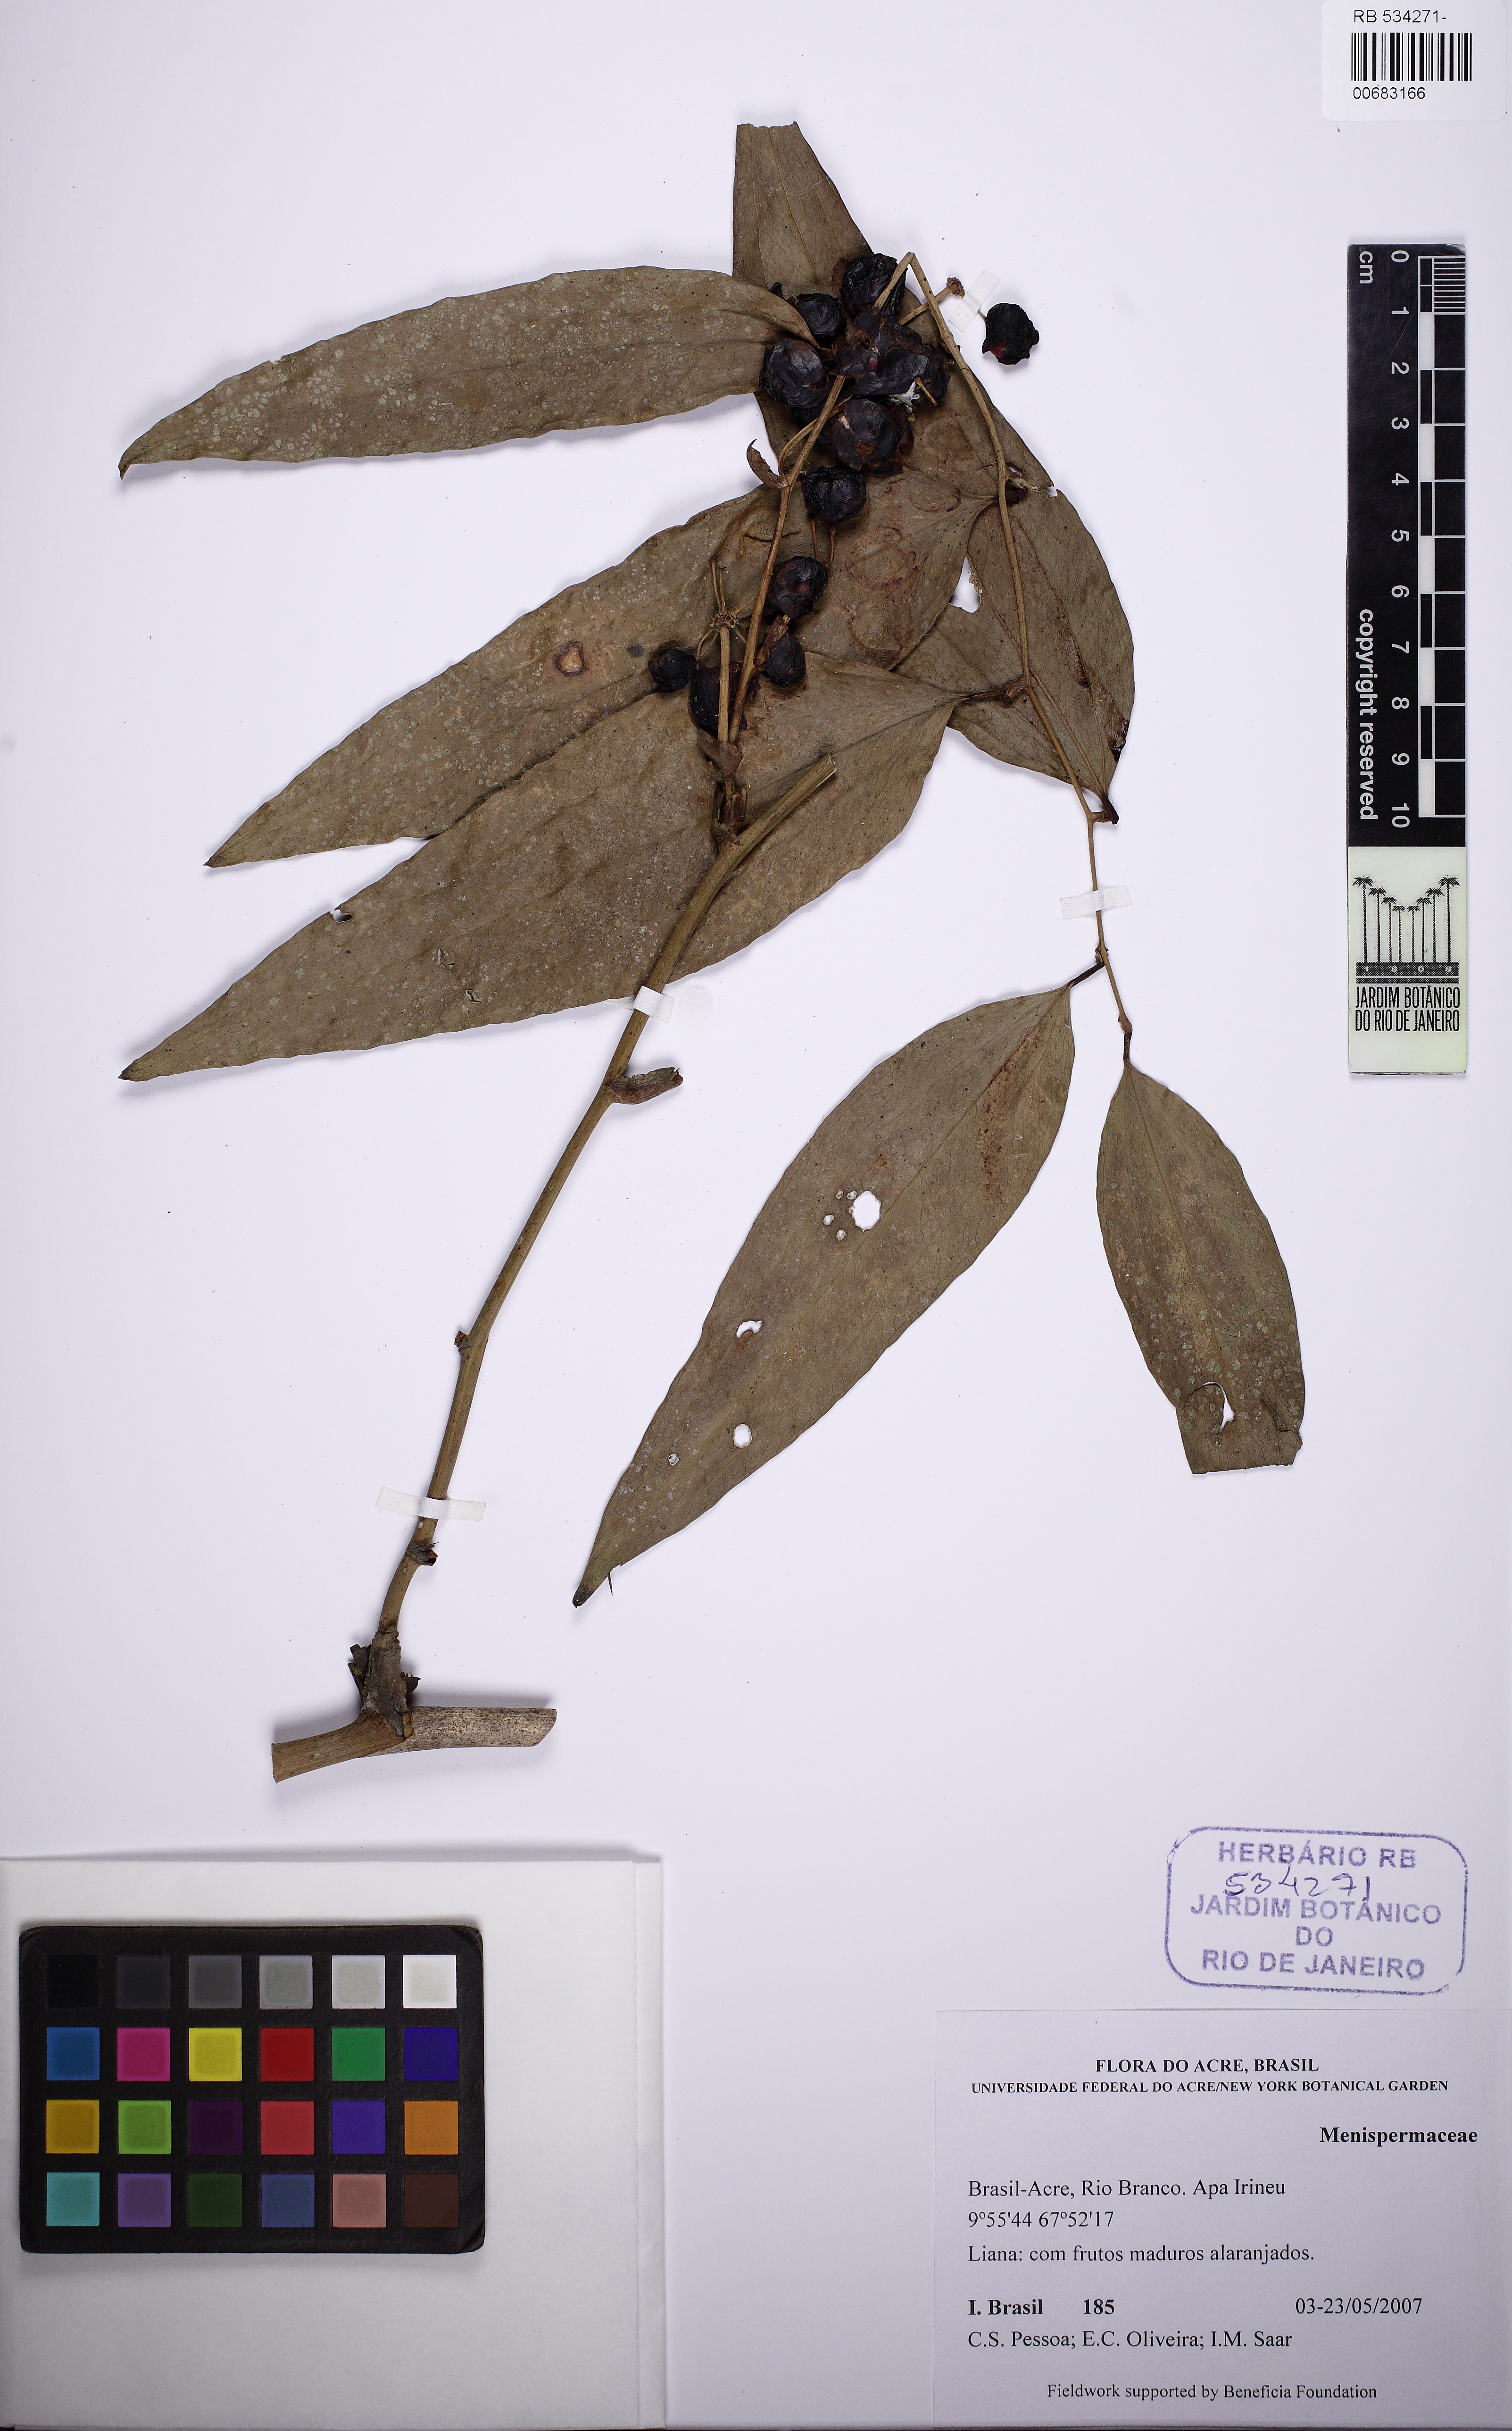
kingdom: Plantae
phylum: Tracheophyta
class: Liliopsida
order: Liliales
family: Smilacaceae
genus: Smilax
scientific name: Smilax
